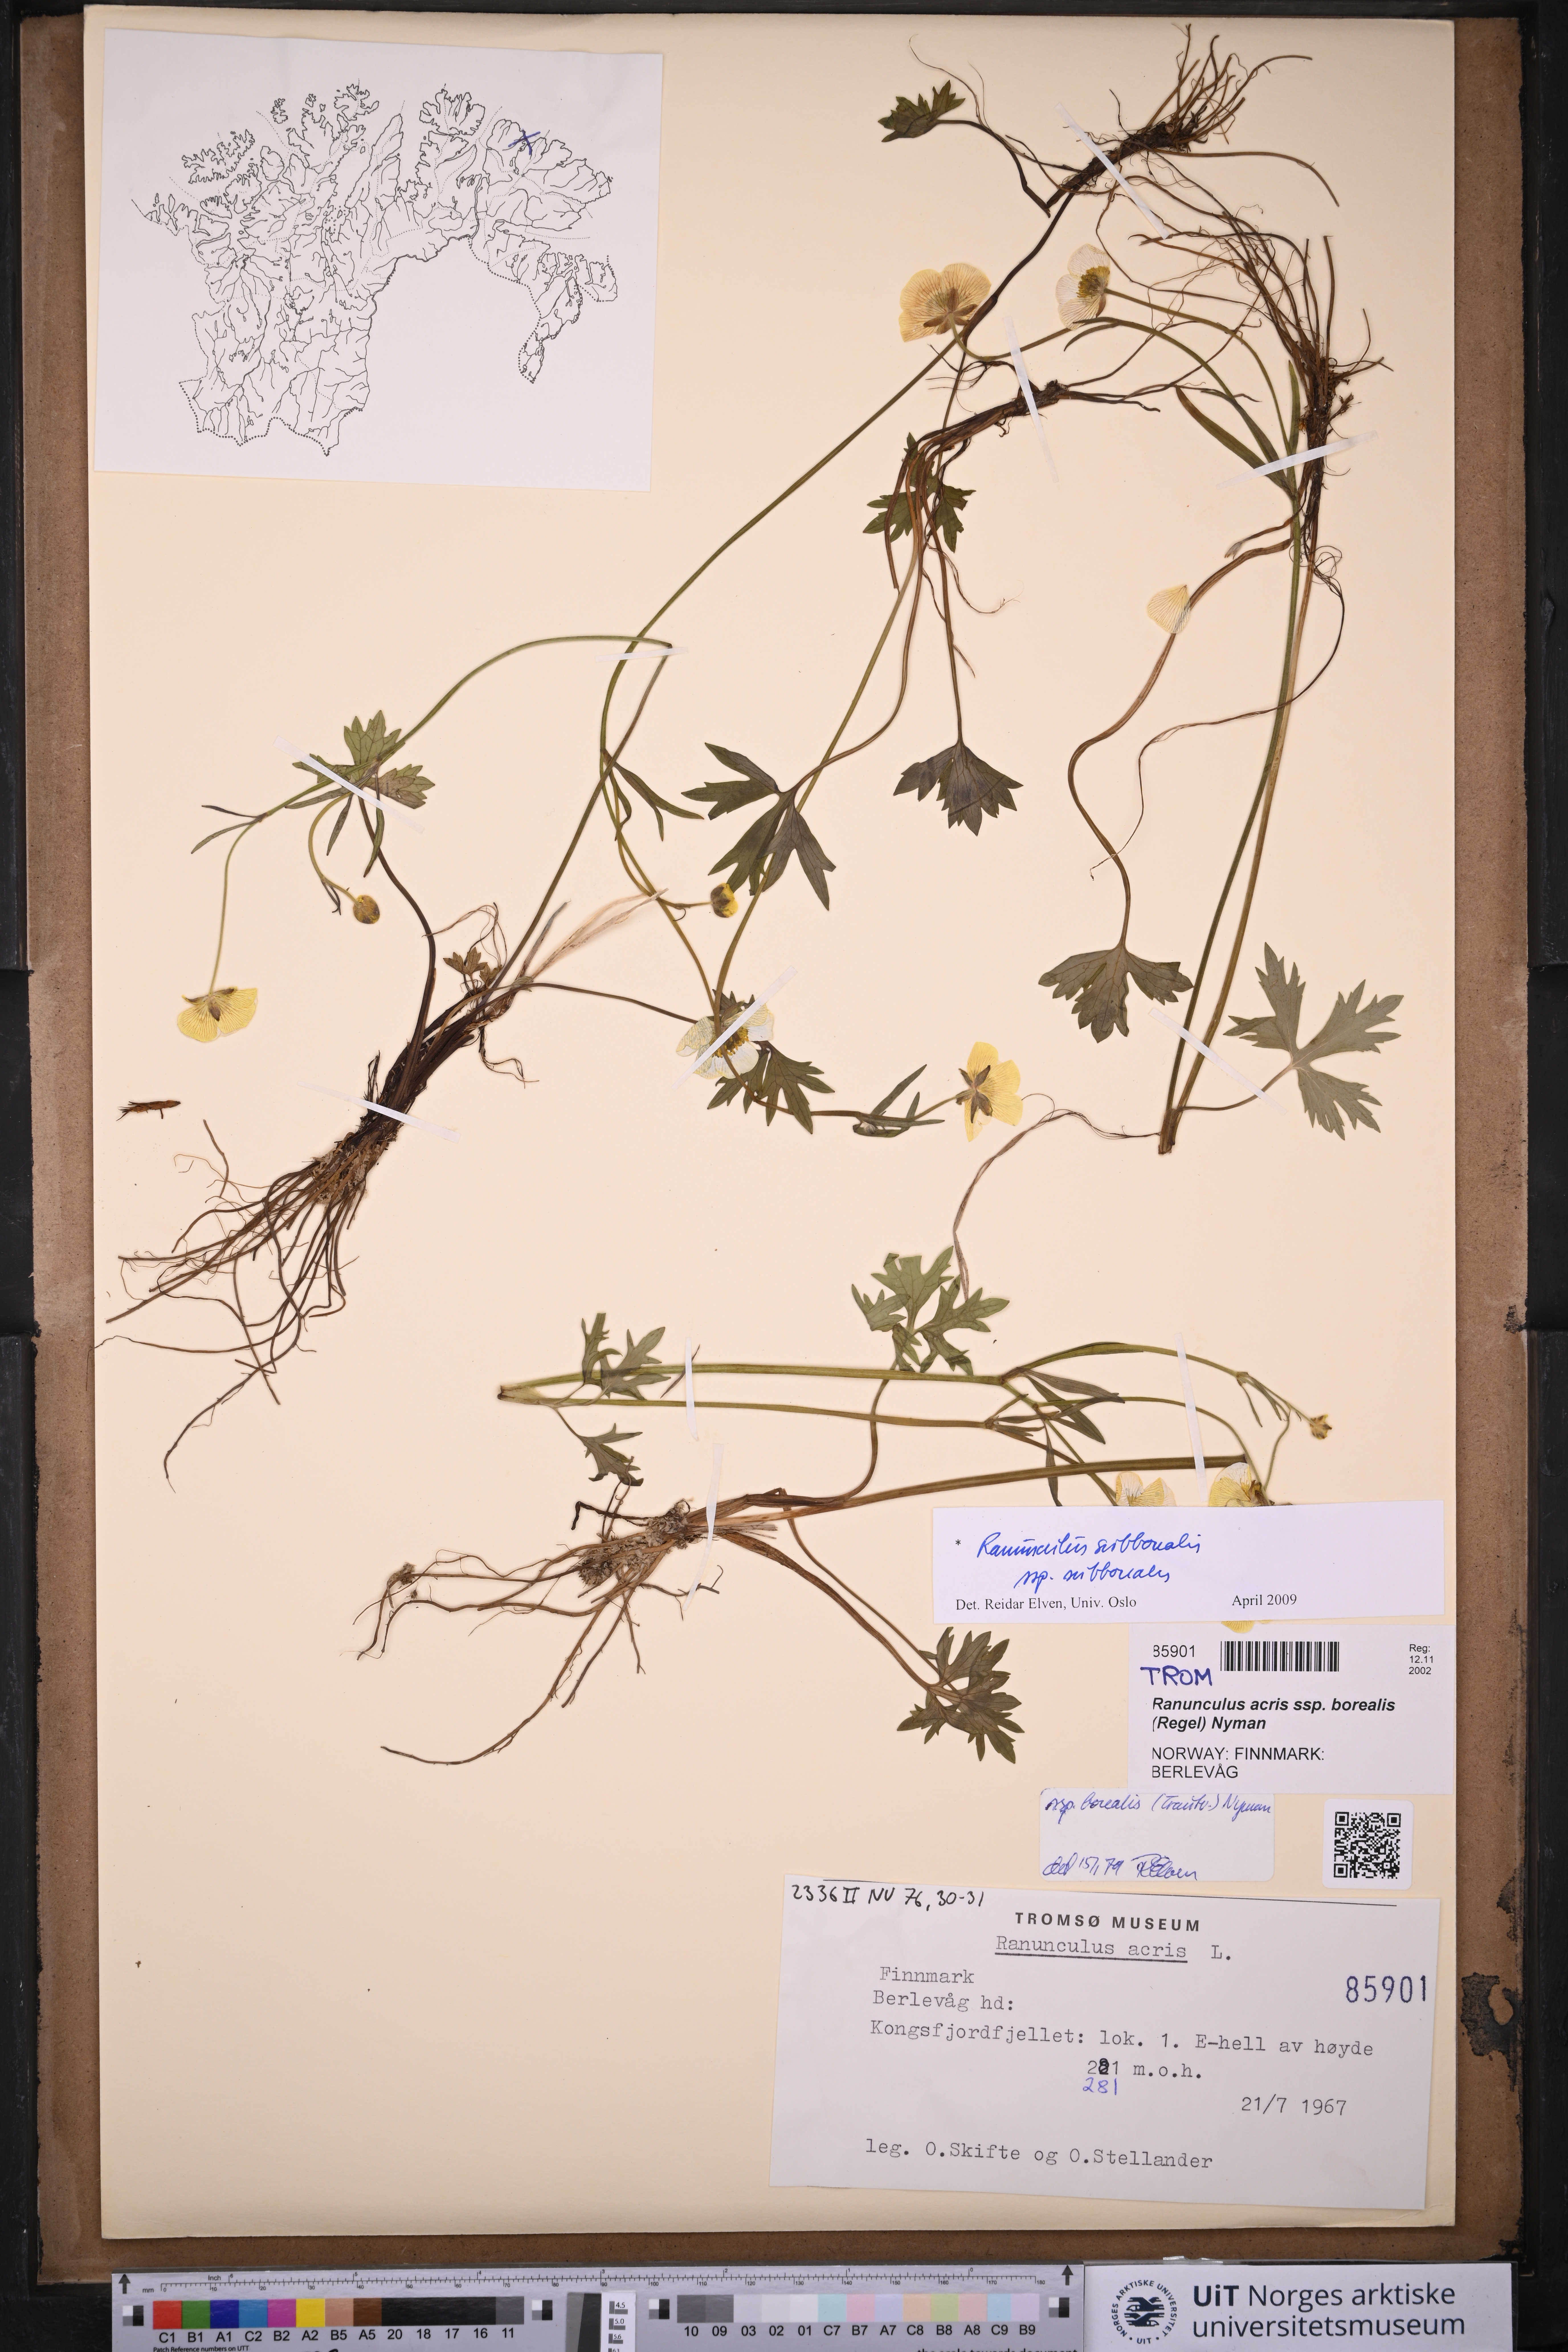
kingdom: Plantae
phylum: Tracheophyta
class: Magnoliopsida
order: Ranunculales
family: Ranunculaceae
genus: Ranunculus
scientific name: Ranunculus propinquus
